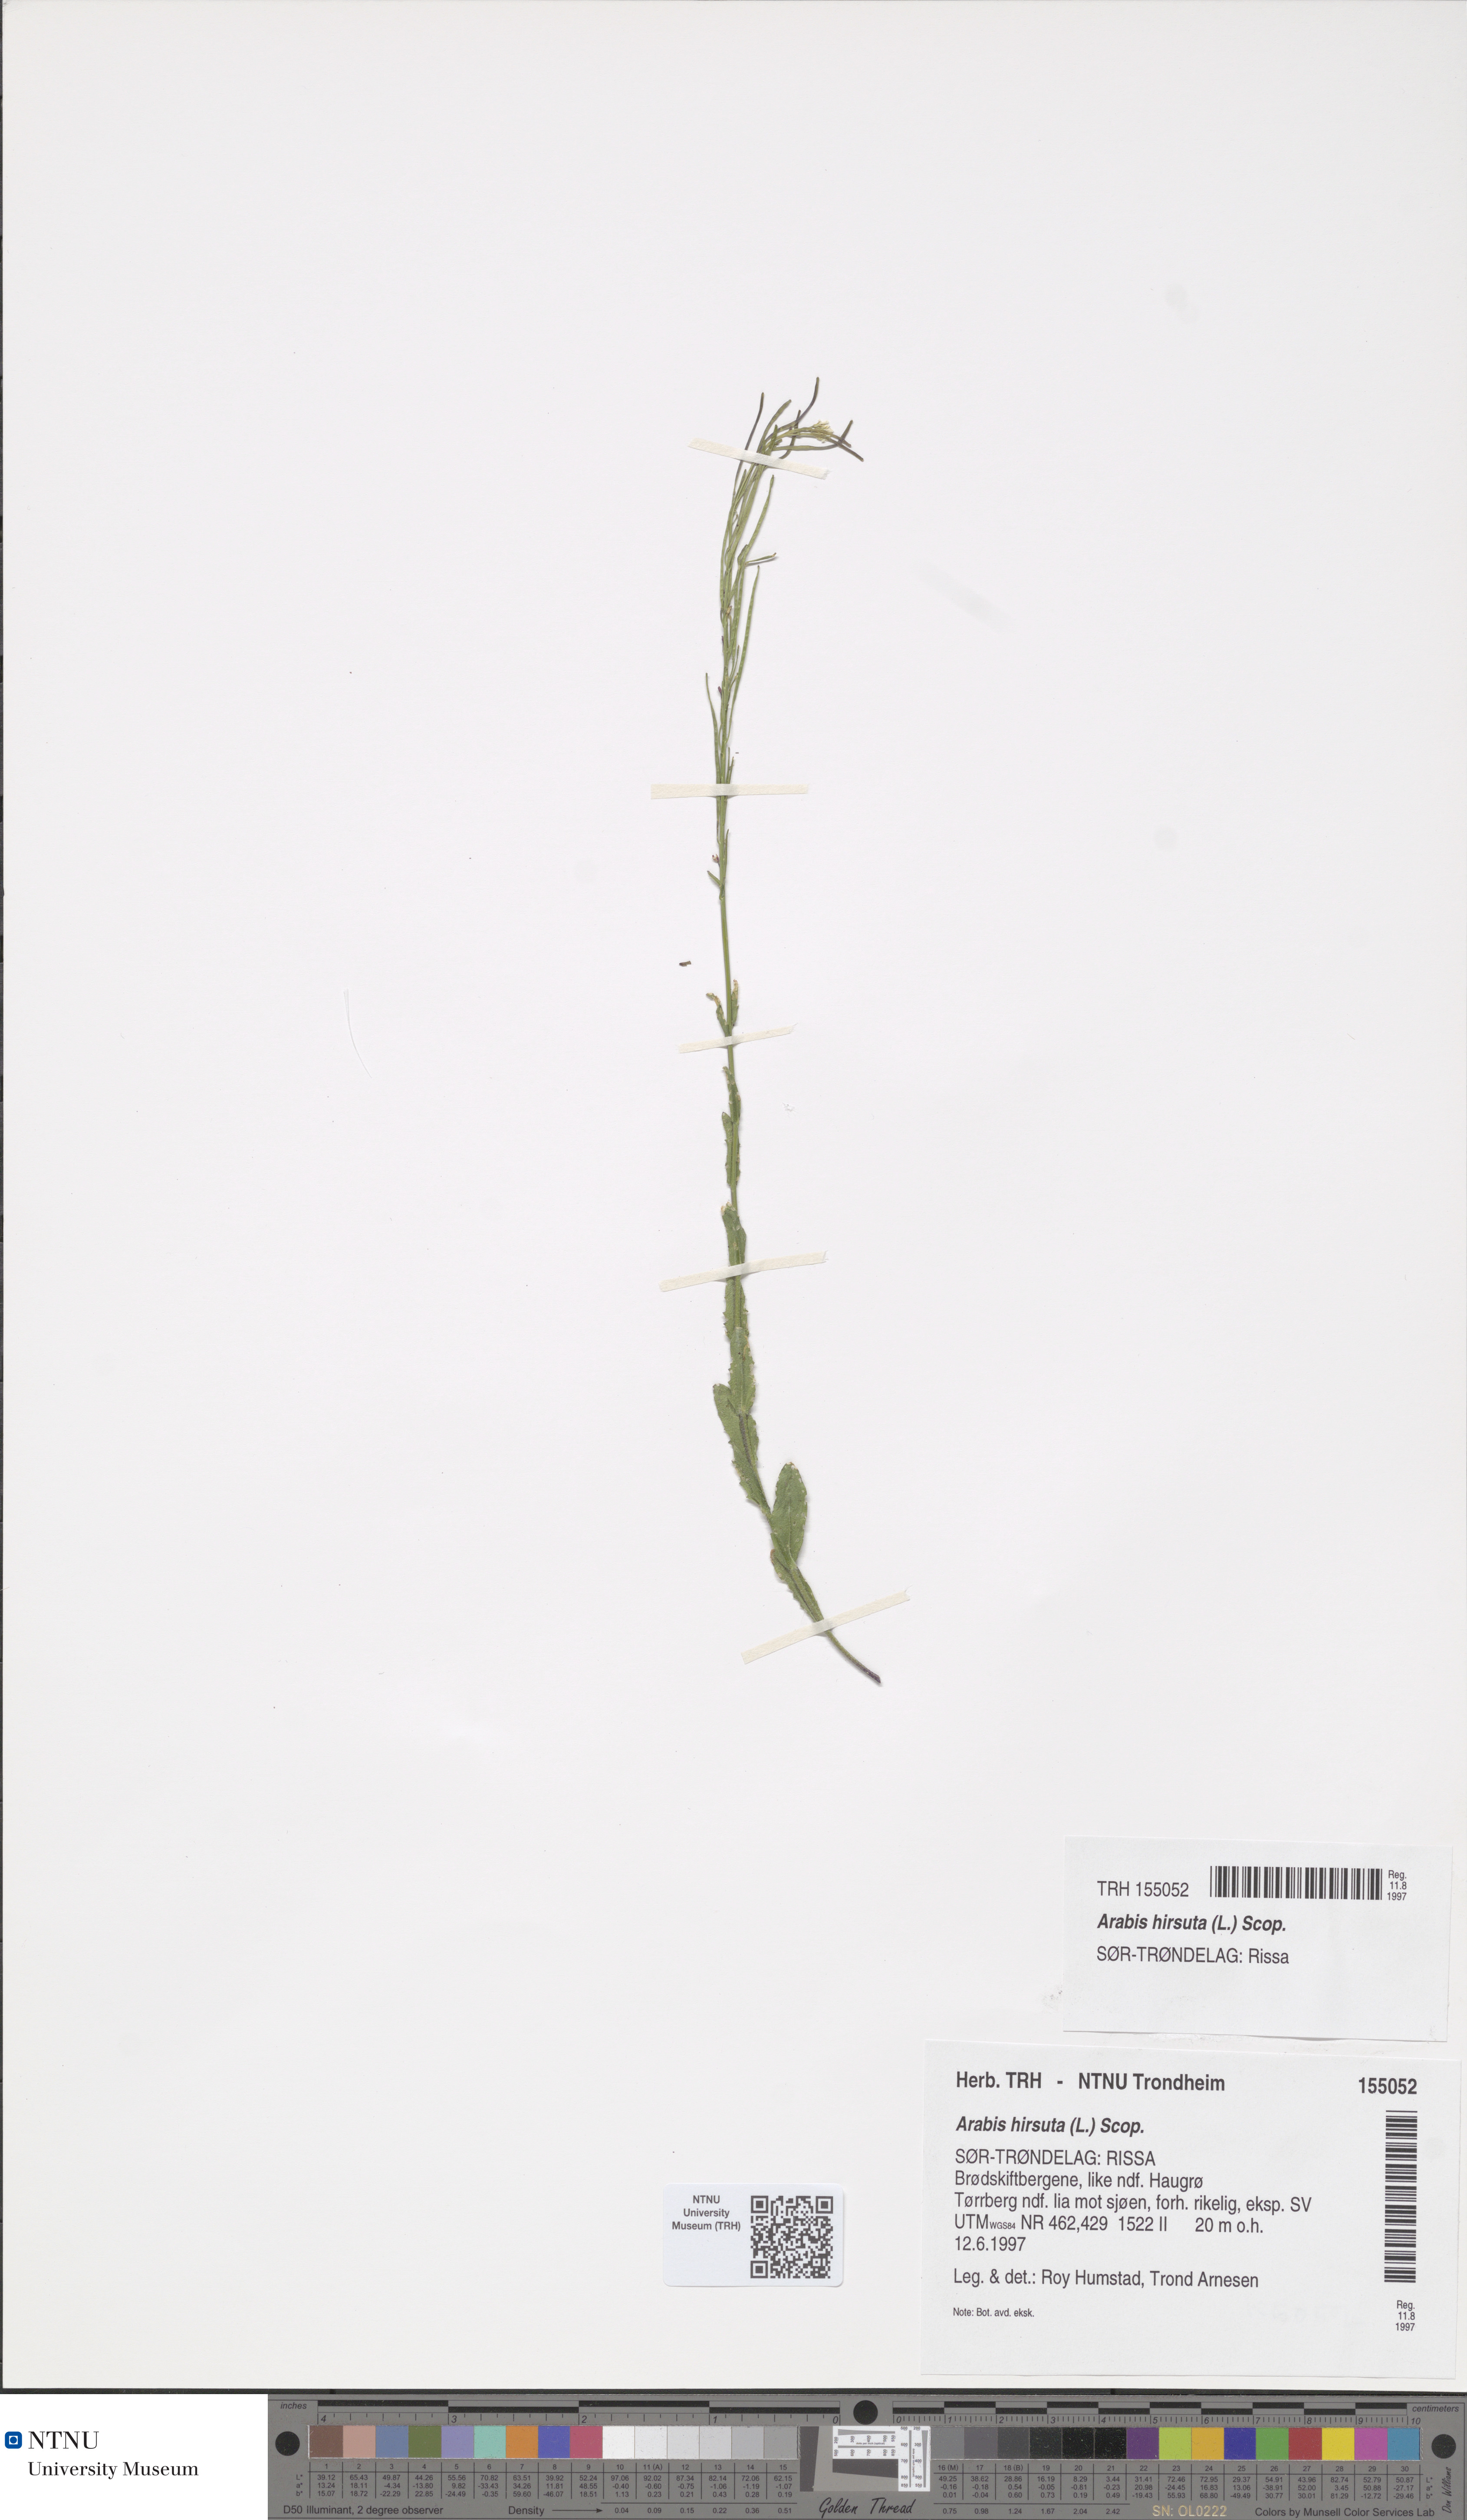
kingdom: Plantae
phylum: Tracheophyta
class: Magnoliopsida
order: Brassicales
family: Brassicaceae
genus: Arabis
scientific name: Arabis hirsuta
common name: Hairy rock-cress
